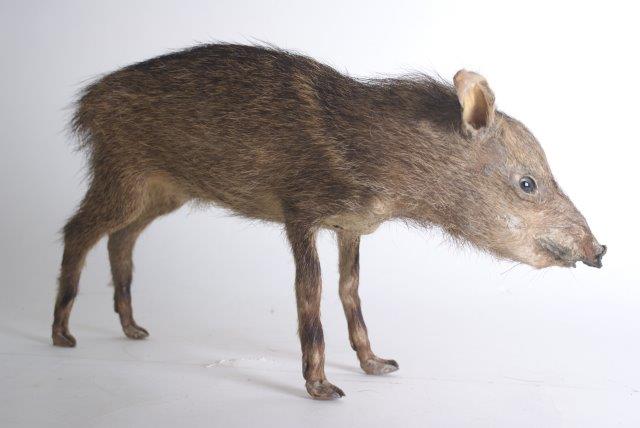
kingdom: Animalia
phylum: Chordata
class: Mammalia
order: Artiodactyla
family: Tayassuidae
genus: Pecari
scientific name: Pecari tajacu
